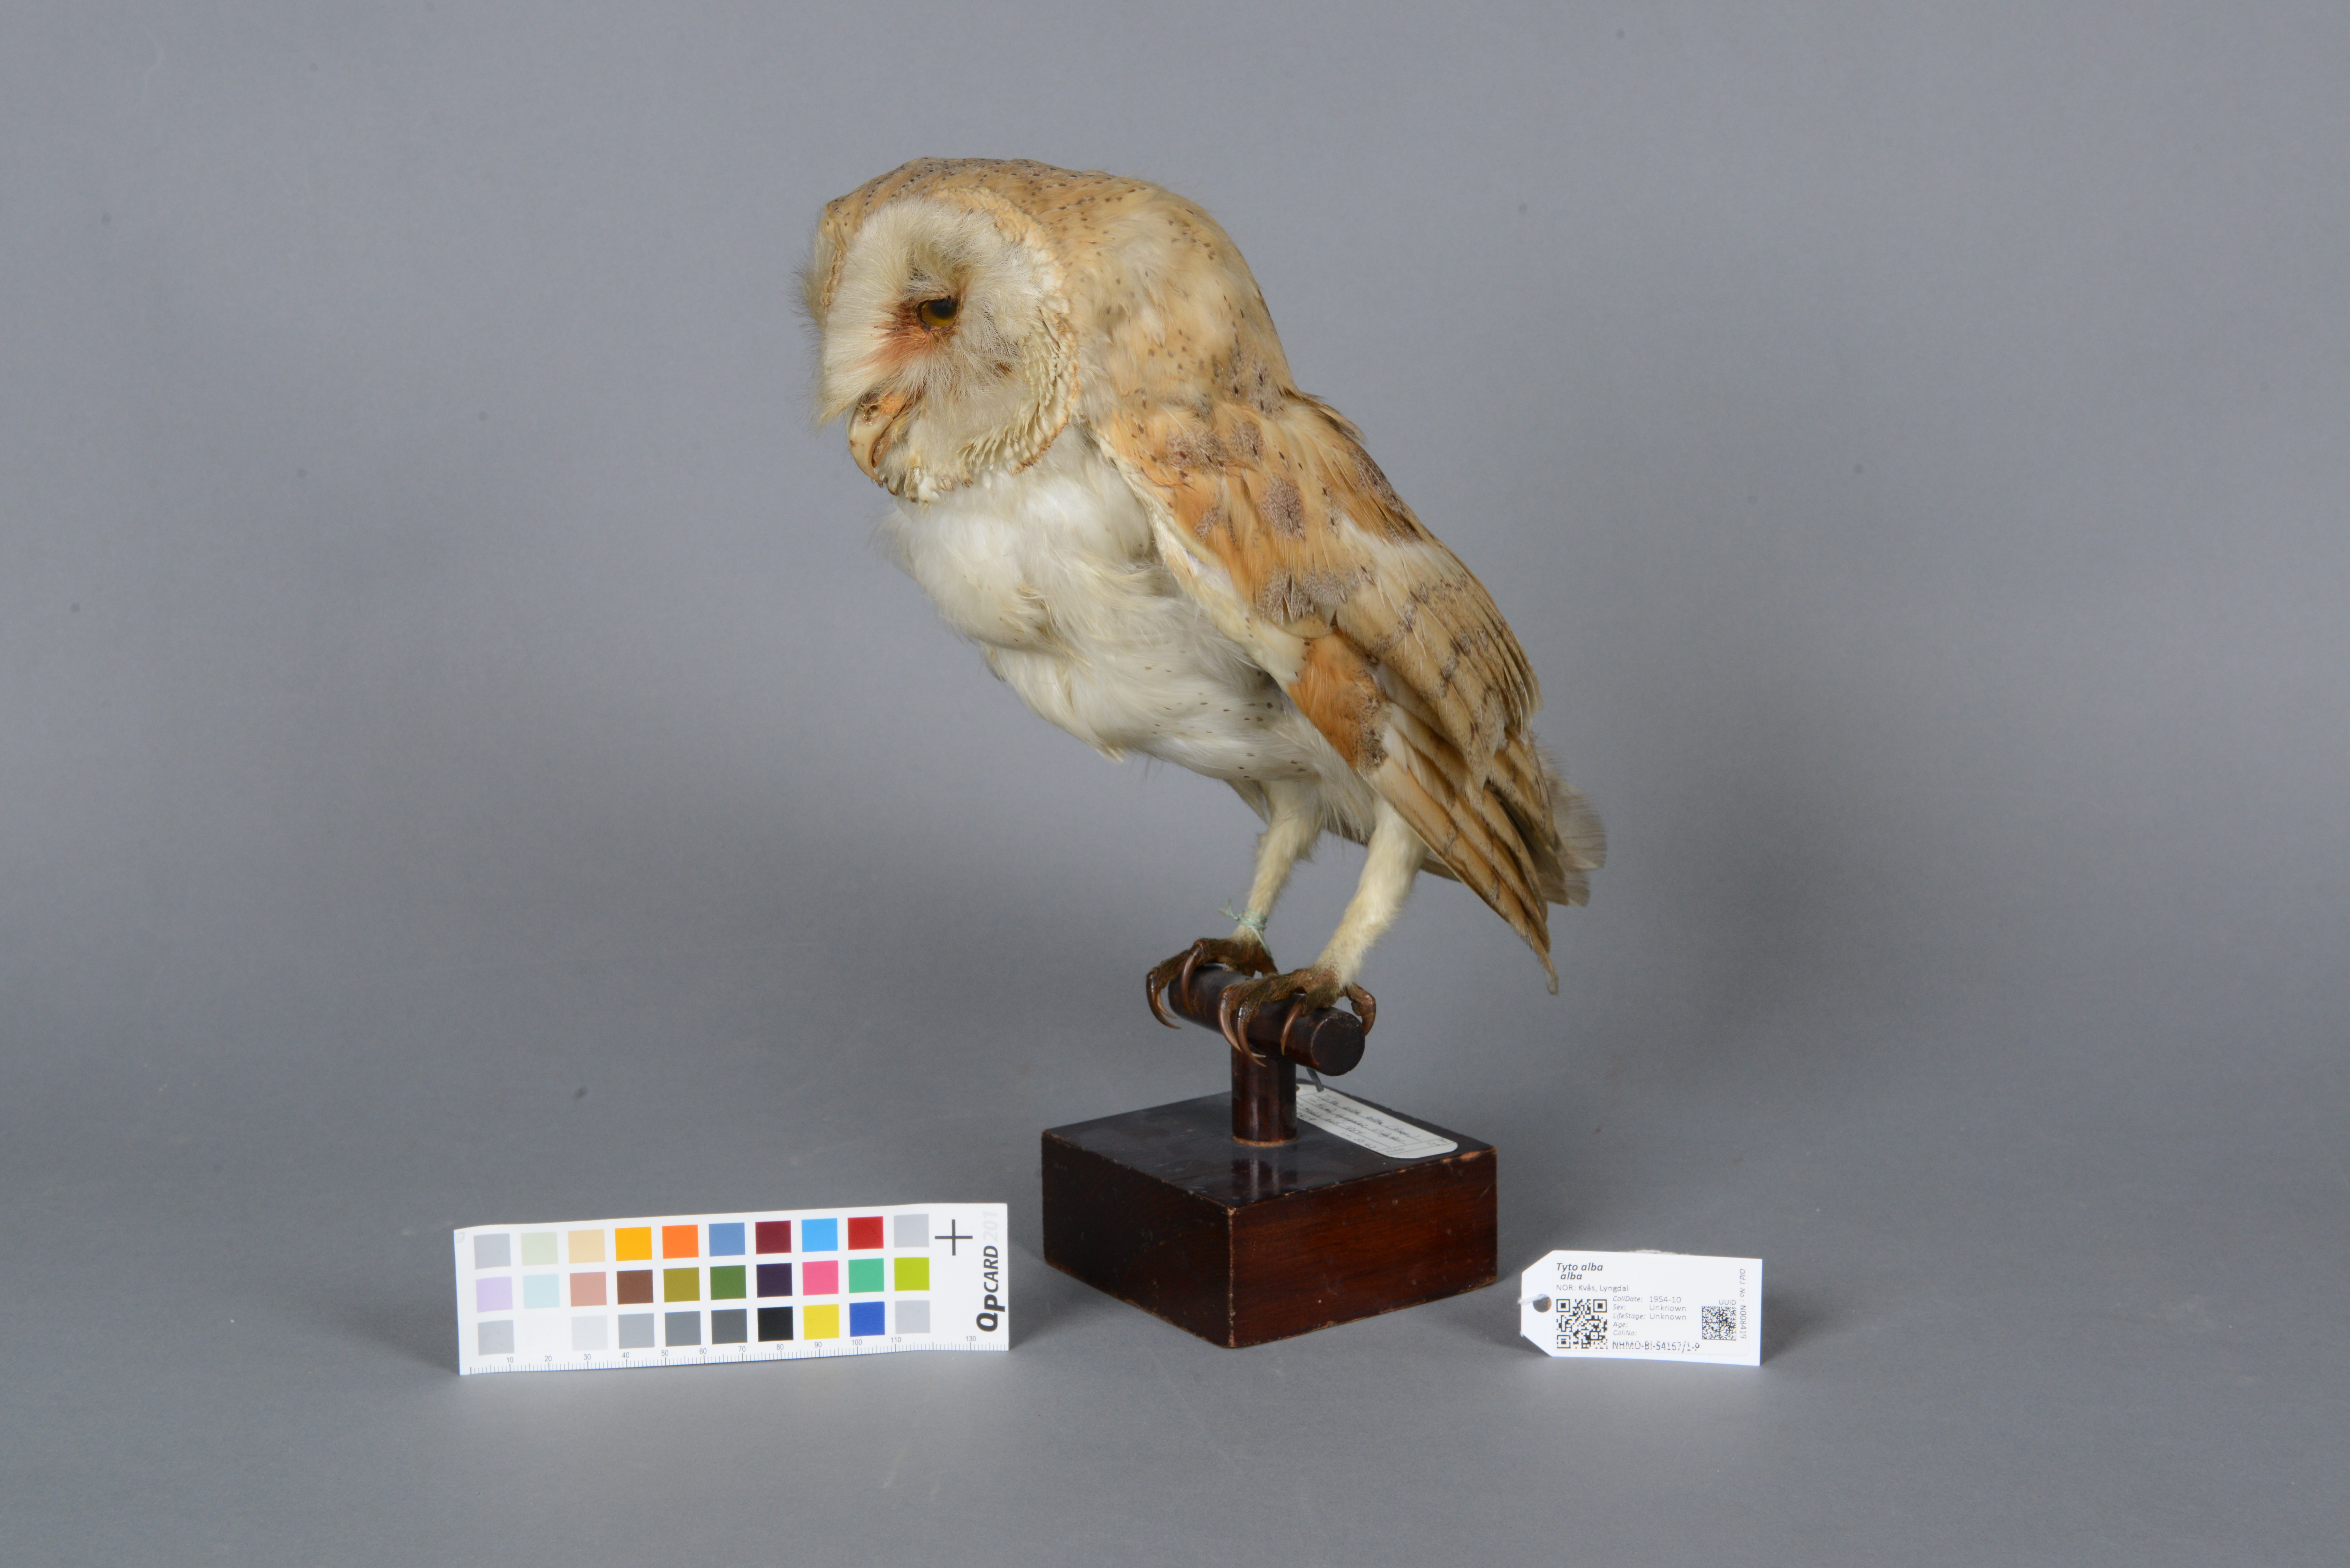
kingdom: Animalia
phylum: Chordata
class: Aves
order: Strigiformes
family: Tytonidae
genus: Tyto
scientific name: Tyto alba
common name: Barn owl
